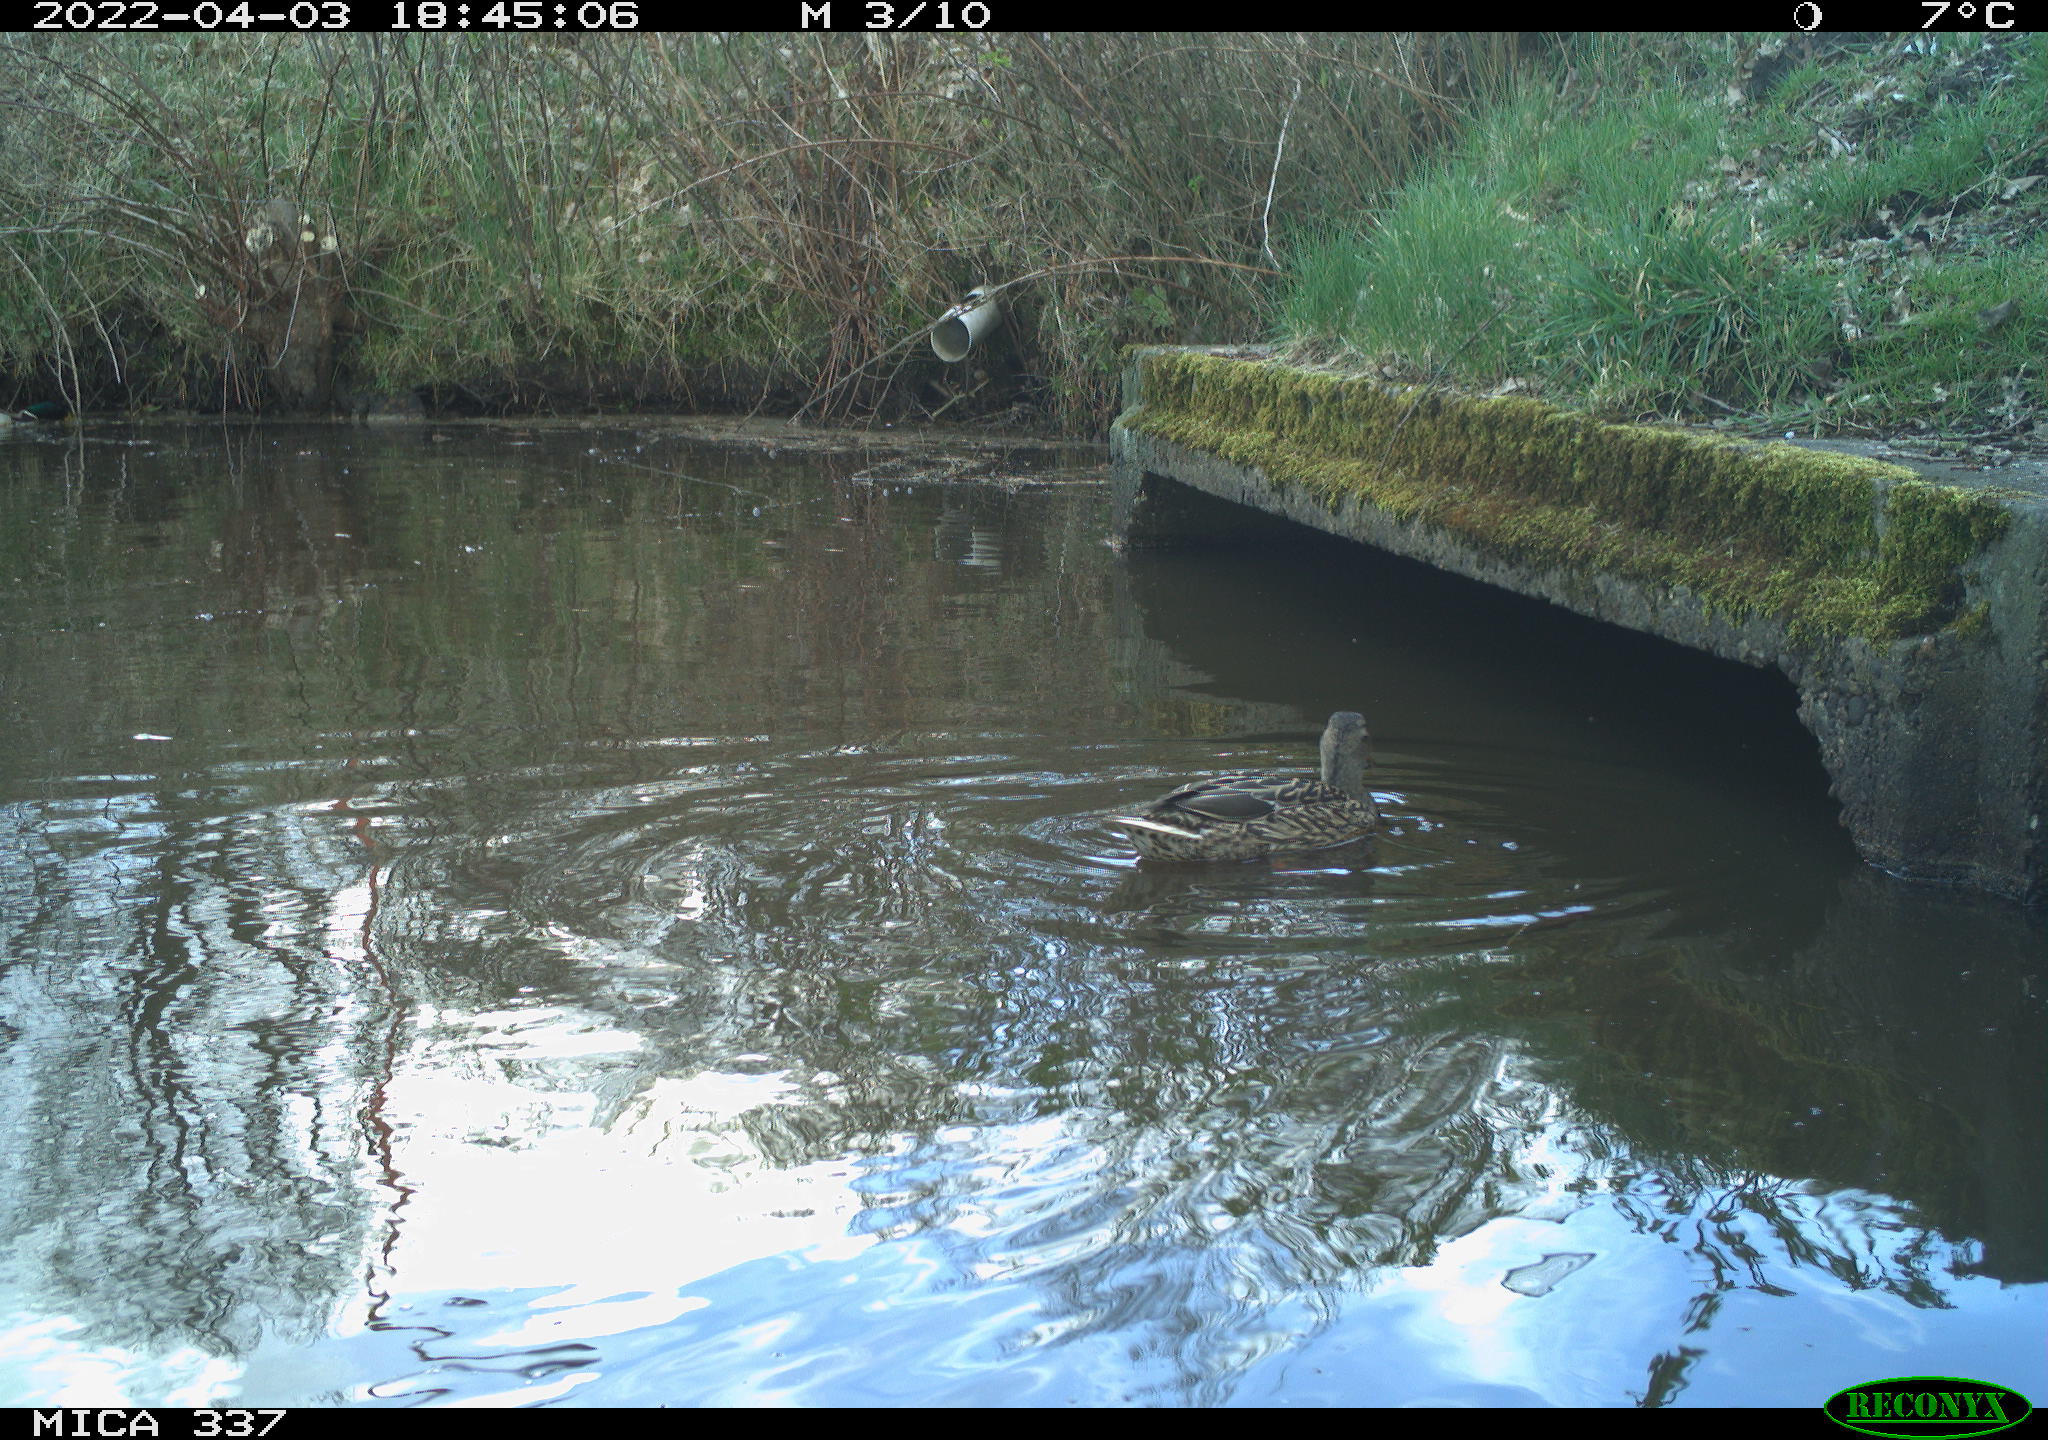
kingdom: Animalia
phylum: Chordata
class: Aves
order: Anseriformes
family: Anatidae
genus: Anas
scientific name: Anas platyrhynchos
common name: Mallard
